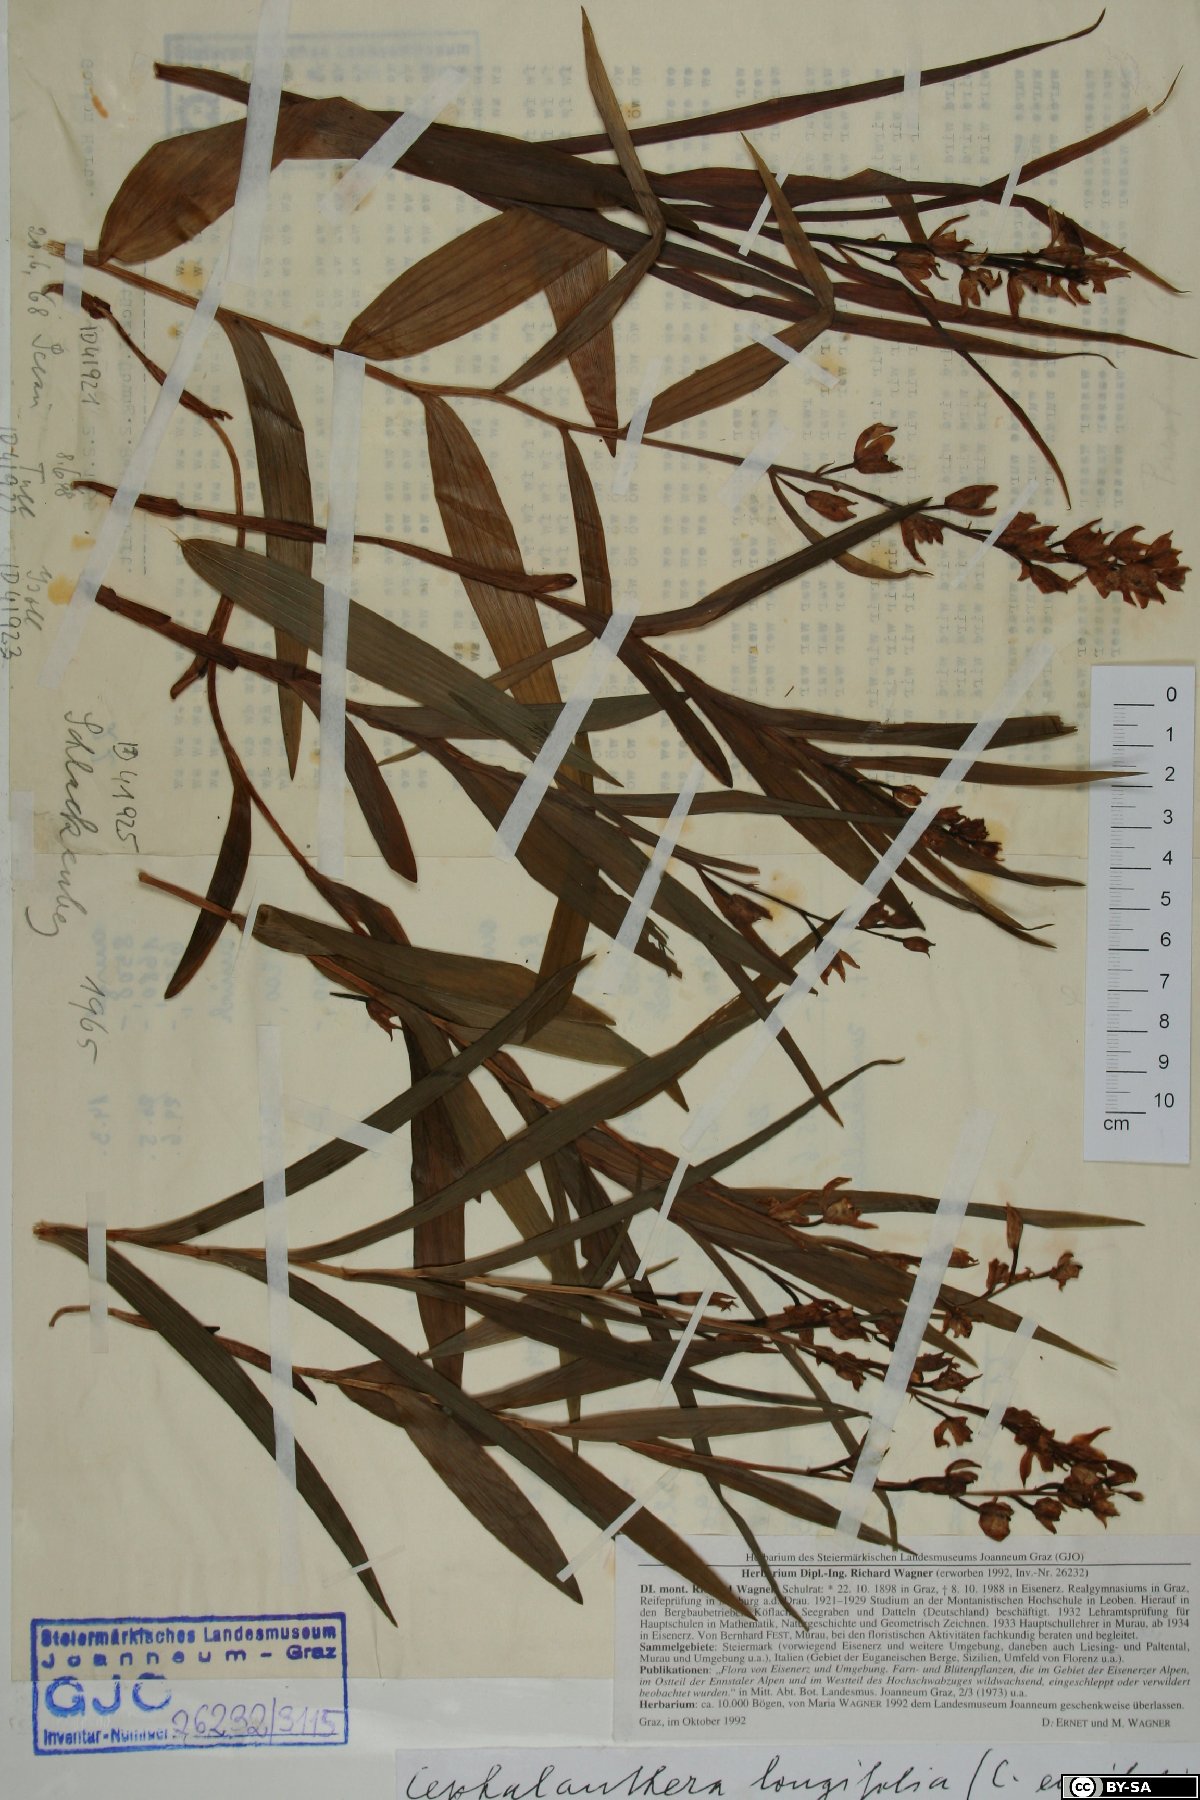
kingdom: Plantae
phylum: Tracheophyta
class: Liliopsida
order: Asparagales
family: Orchidaceae
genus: Cephalanthera
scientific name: Cephalanthera longifolia
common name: Narrow-leaved helleborine
